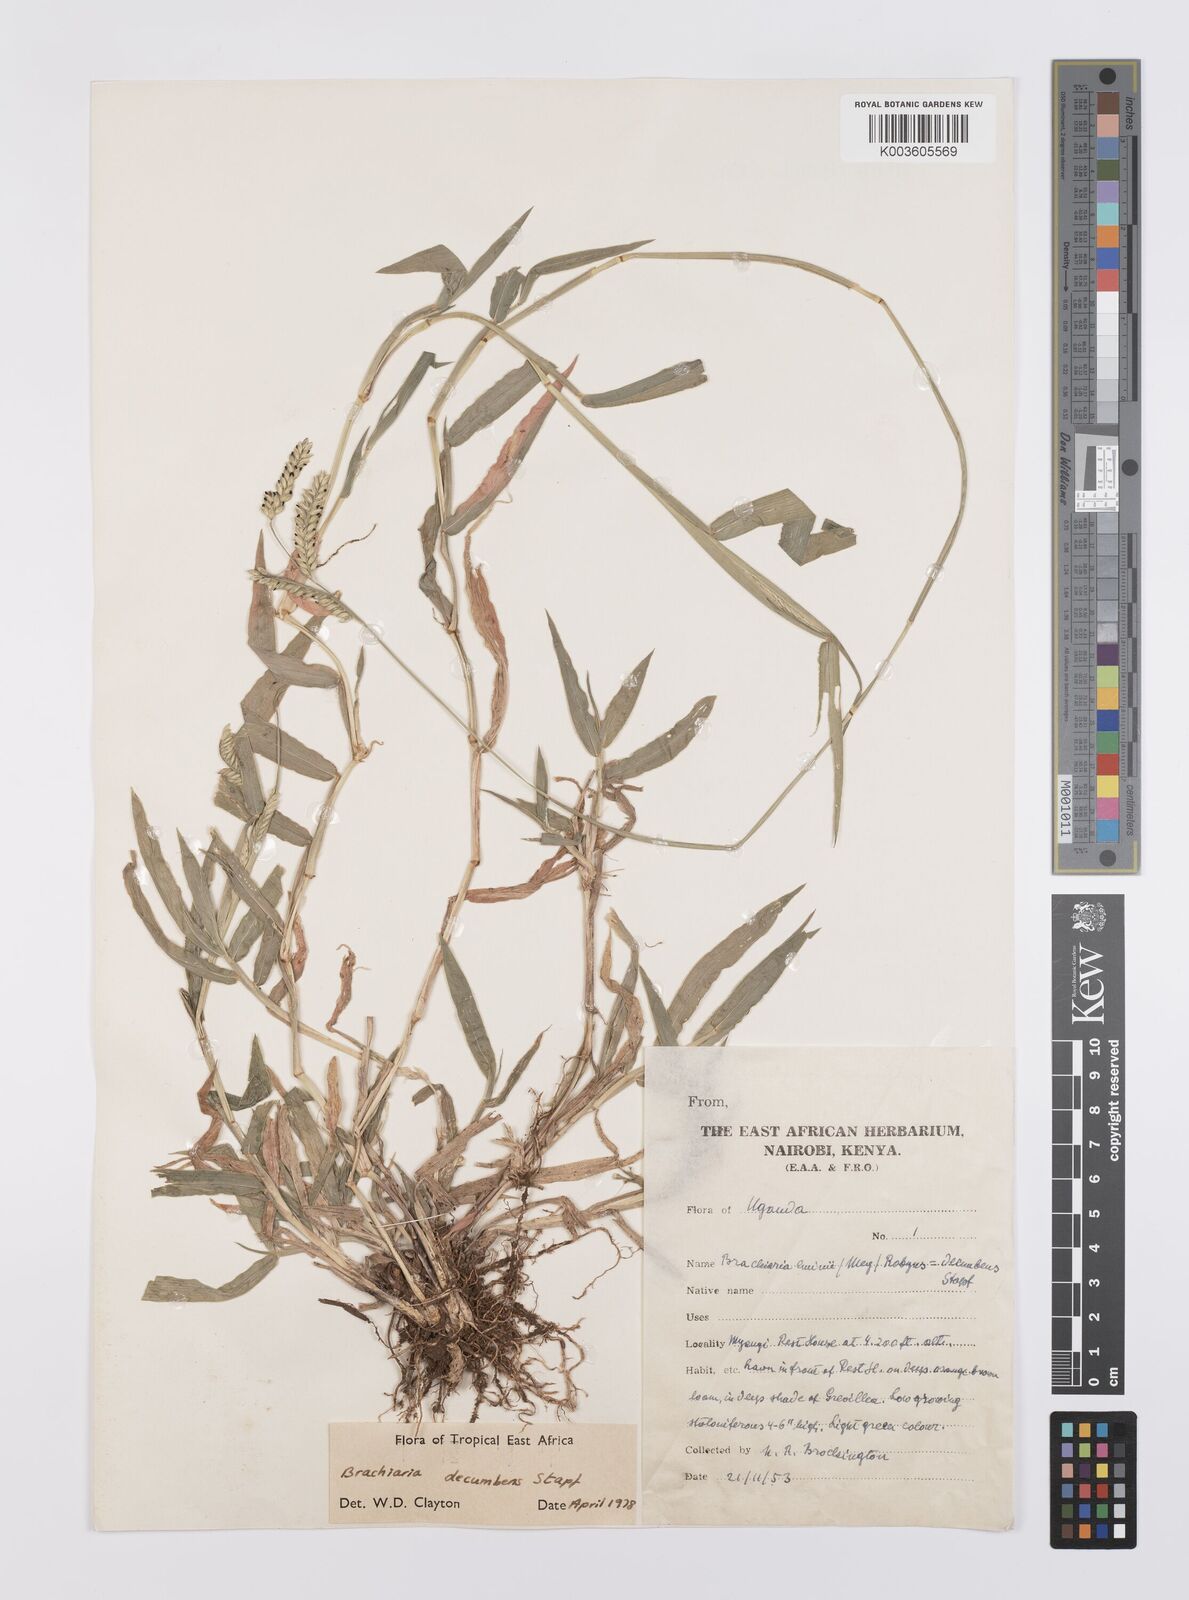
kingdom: Plantae
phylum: Tracheophyta
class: Liliopsida
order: Poales
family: Poaceae
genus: Urochloa
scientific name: Urochloa eminii
